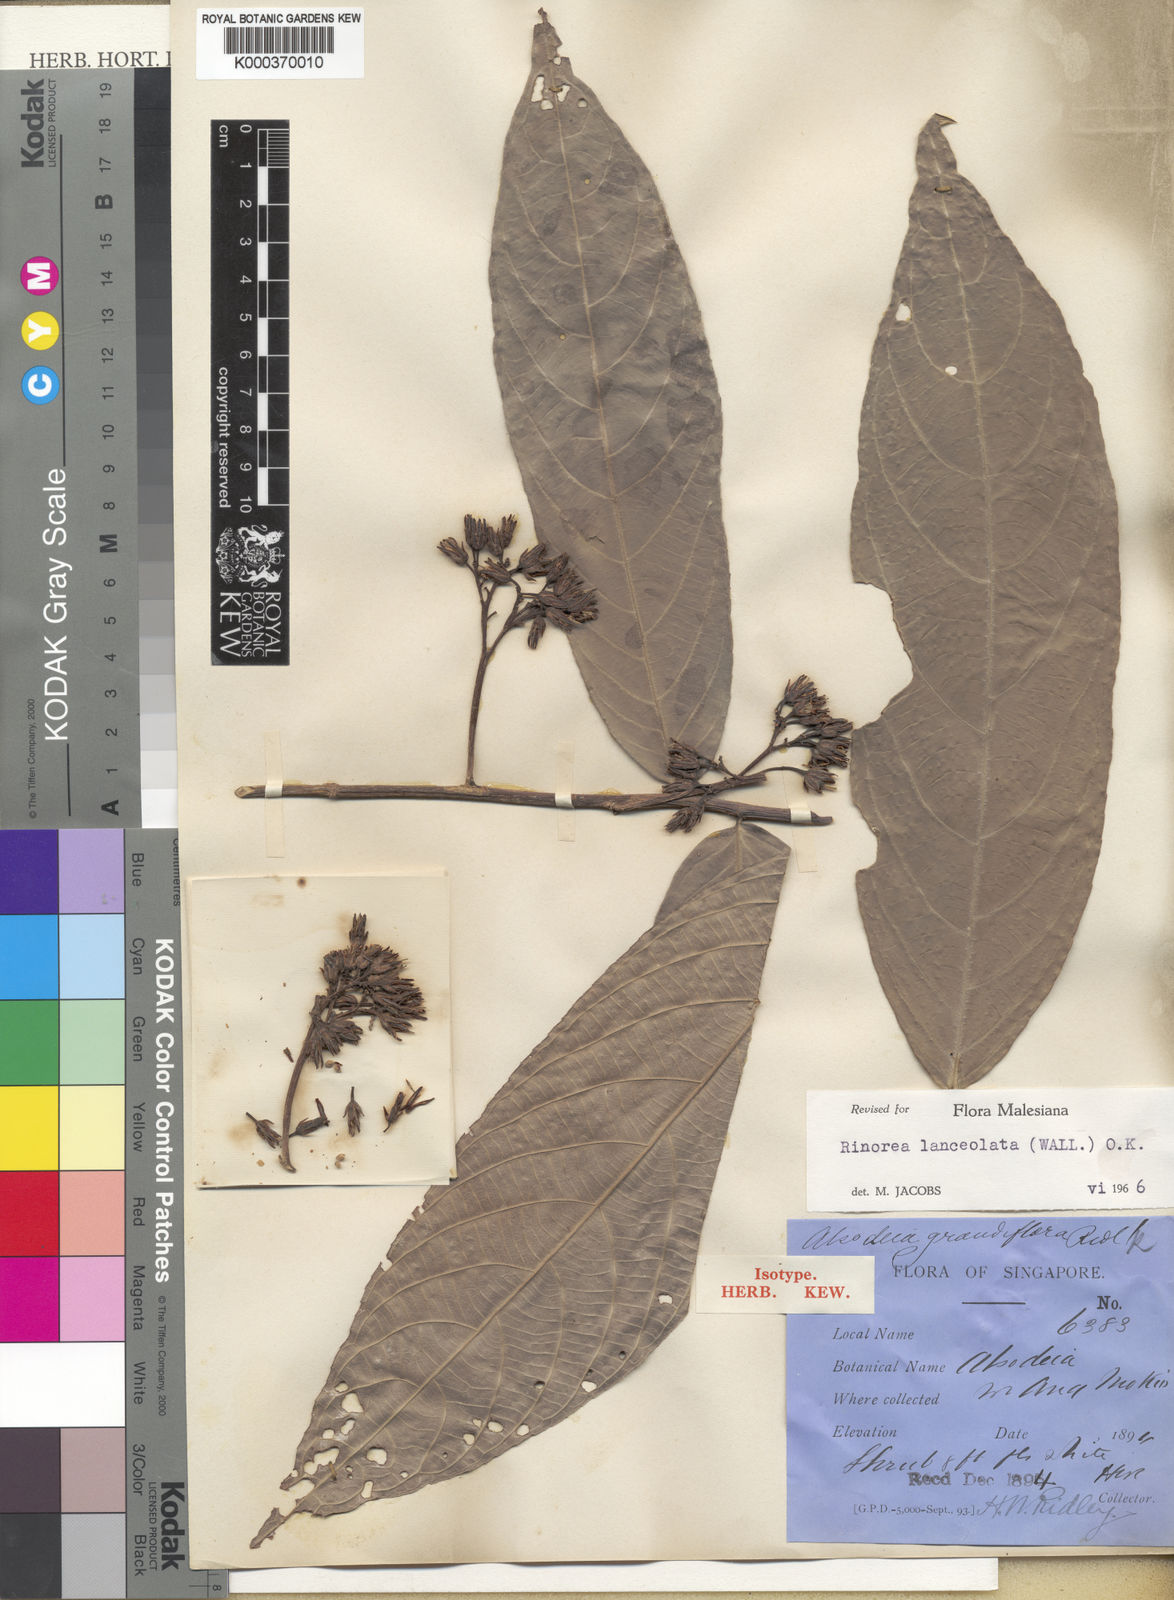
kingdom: Plantae
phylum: Tracheophyta
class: Magnoliopsida
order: Malpighiales
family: Violaceae
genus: Rinorea
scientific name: Rinorea lanceolata
